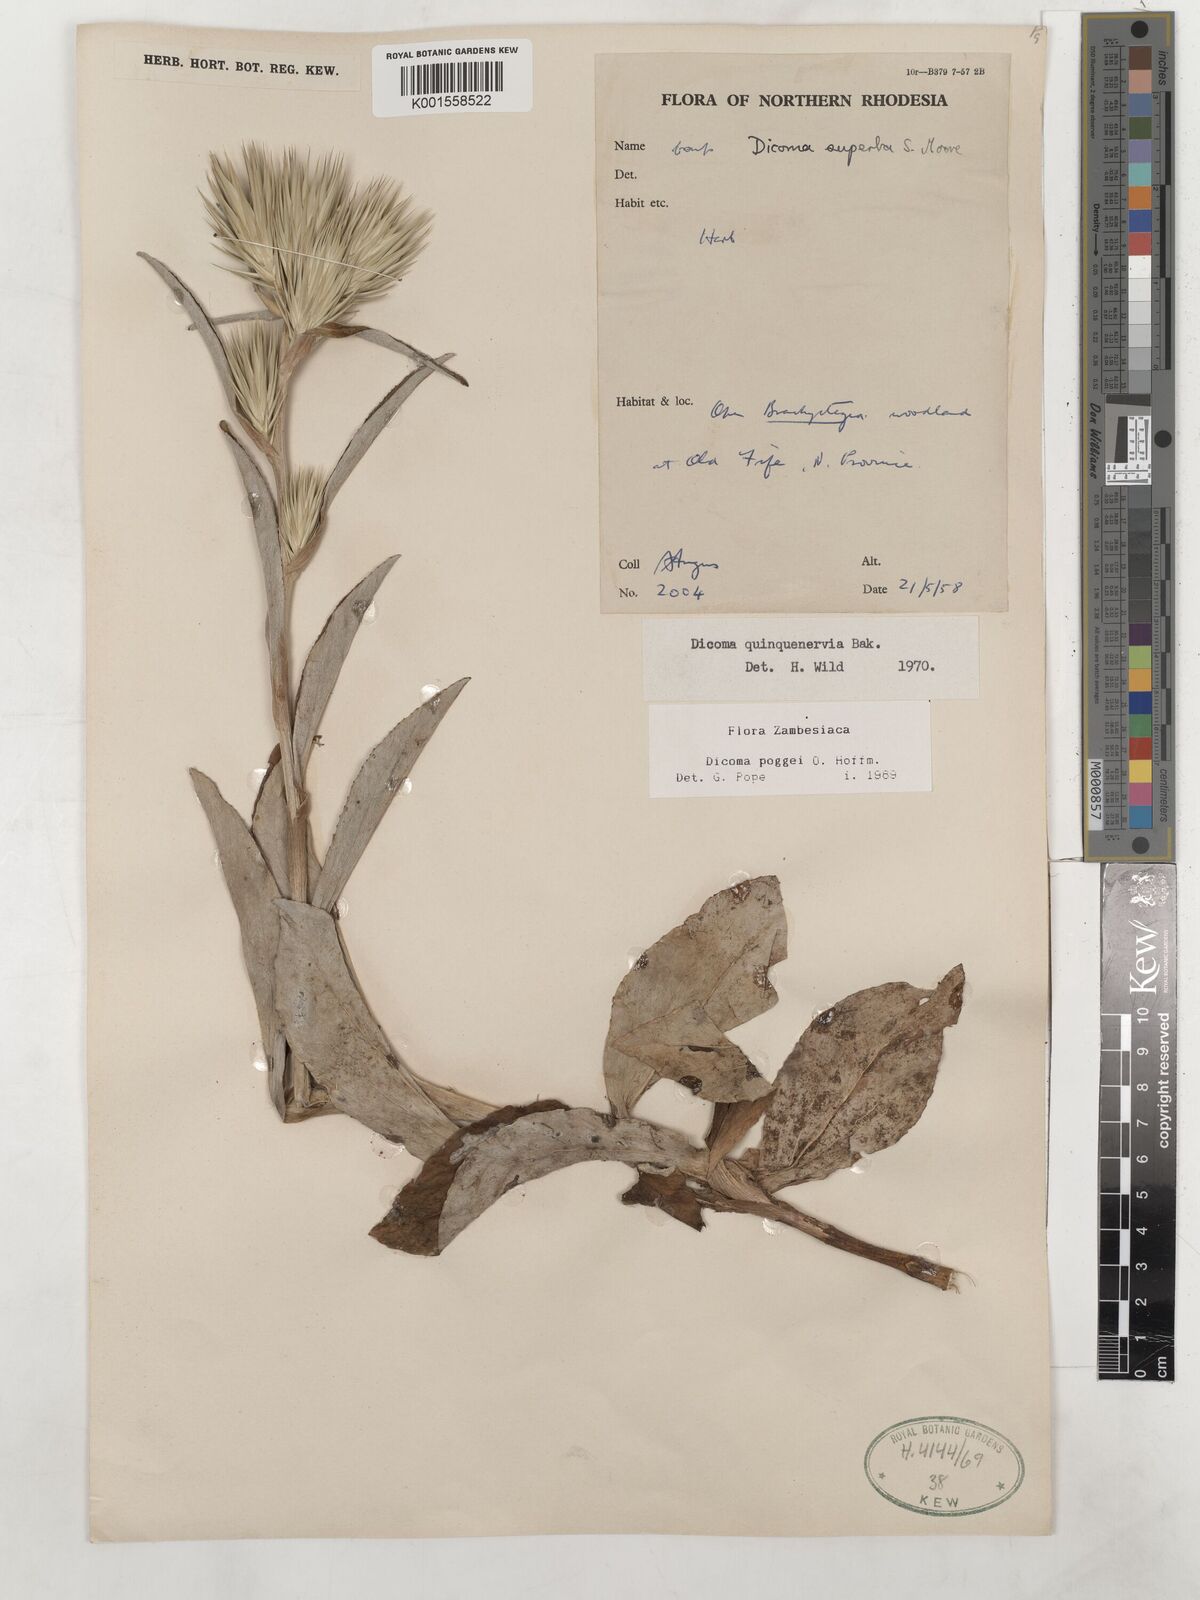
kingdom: Plantae
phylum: Tracheophyta
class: Magnoliopsida
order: Asterales
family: Asteraceae
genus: Macledium
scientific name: Macledium poggei
